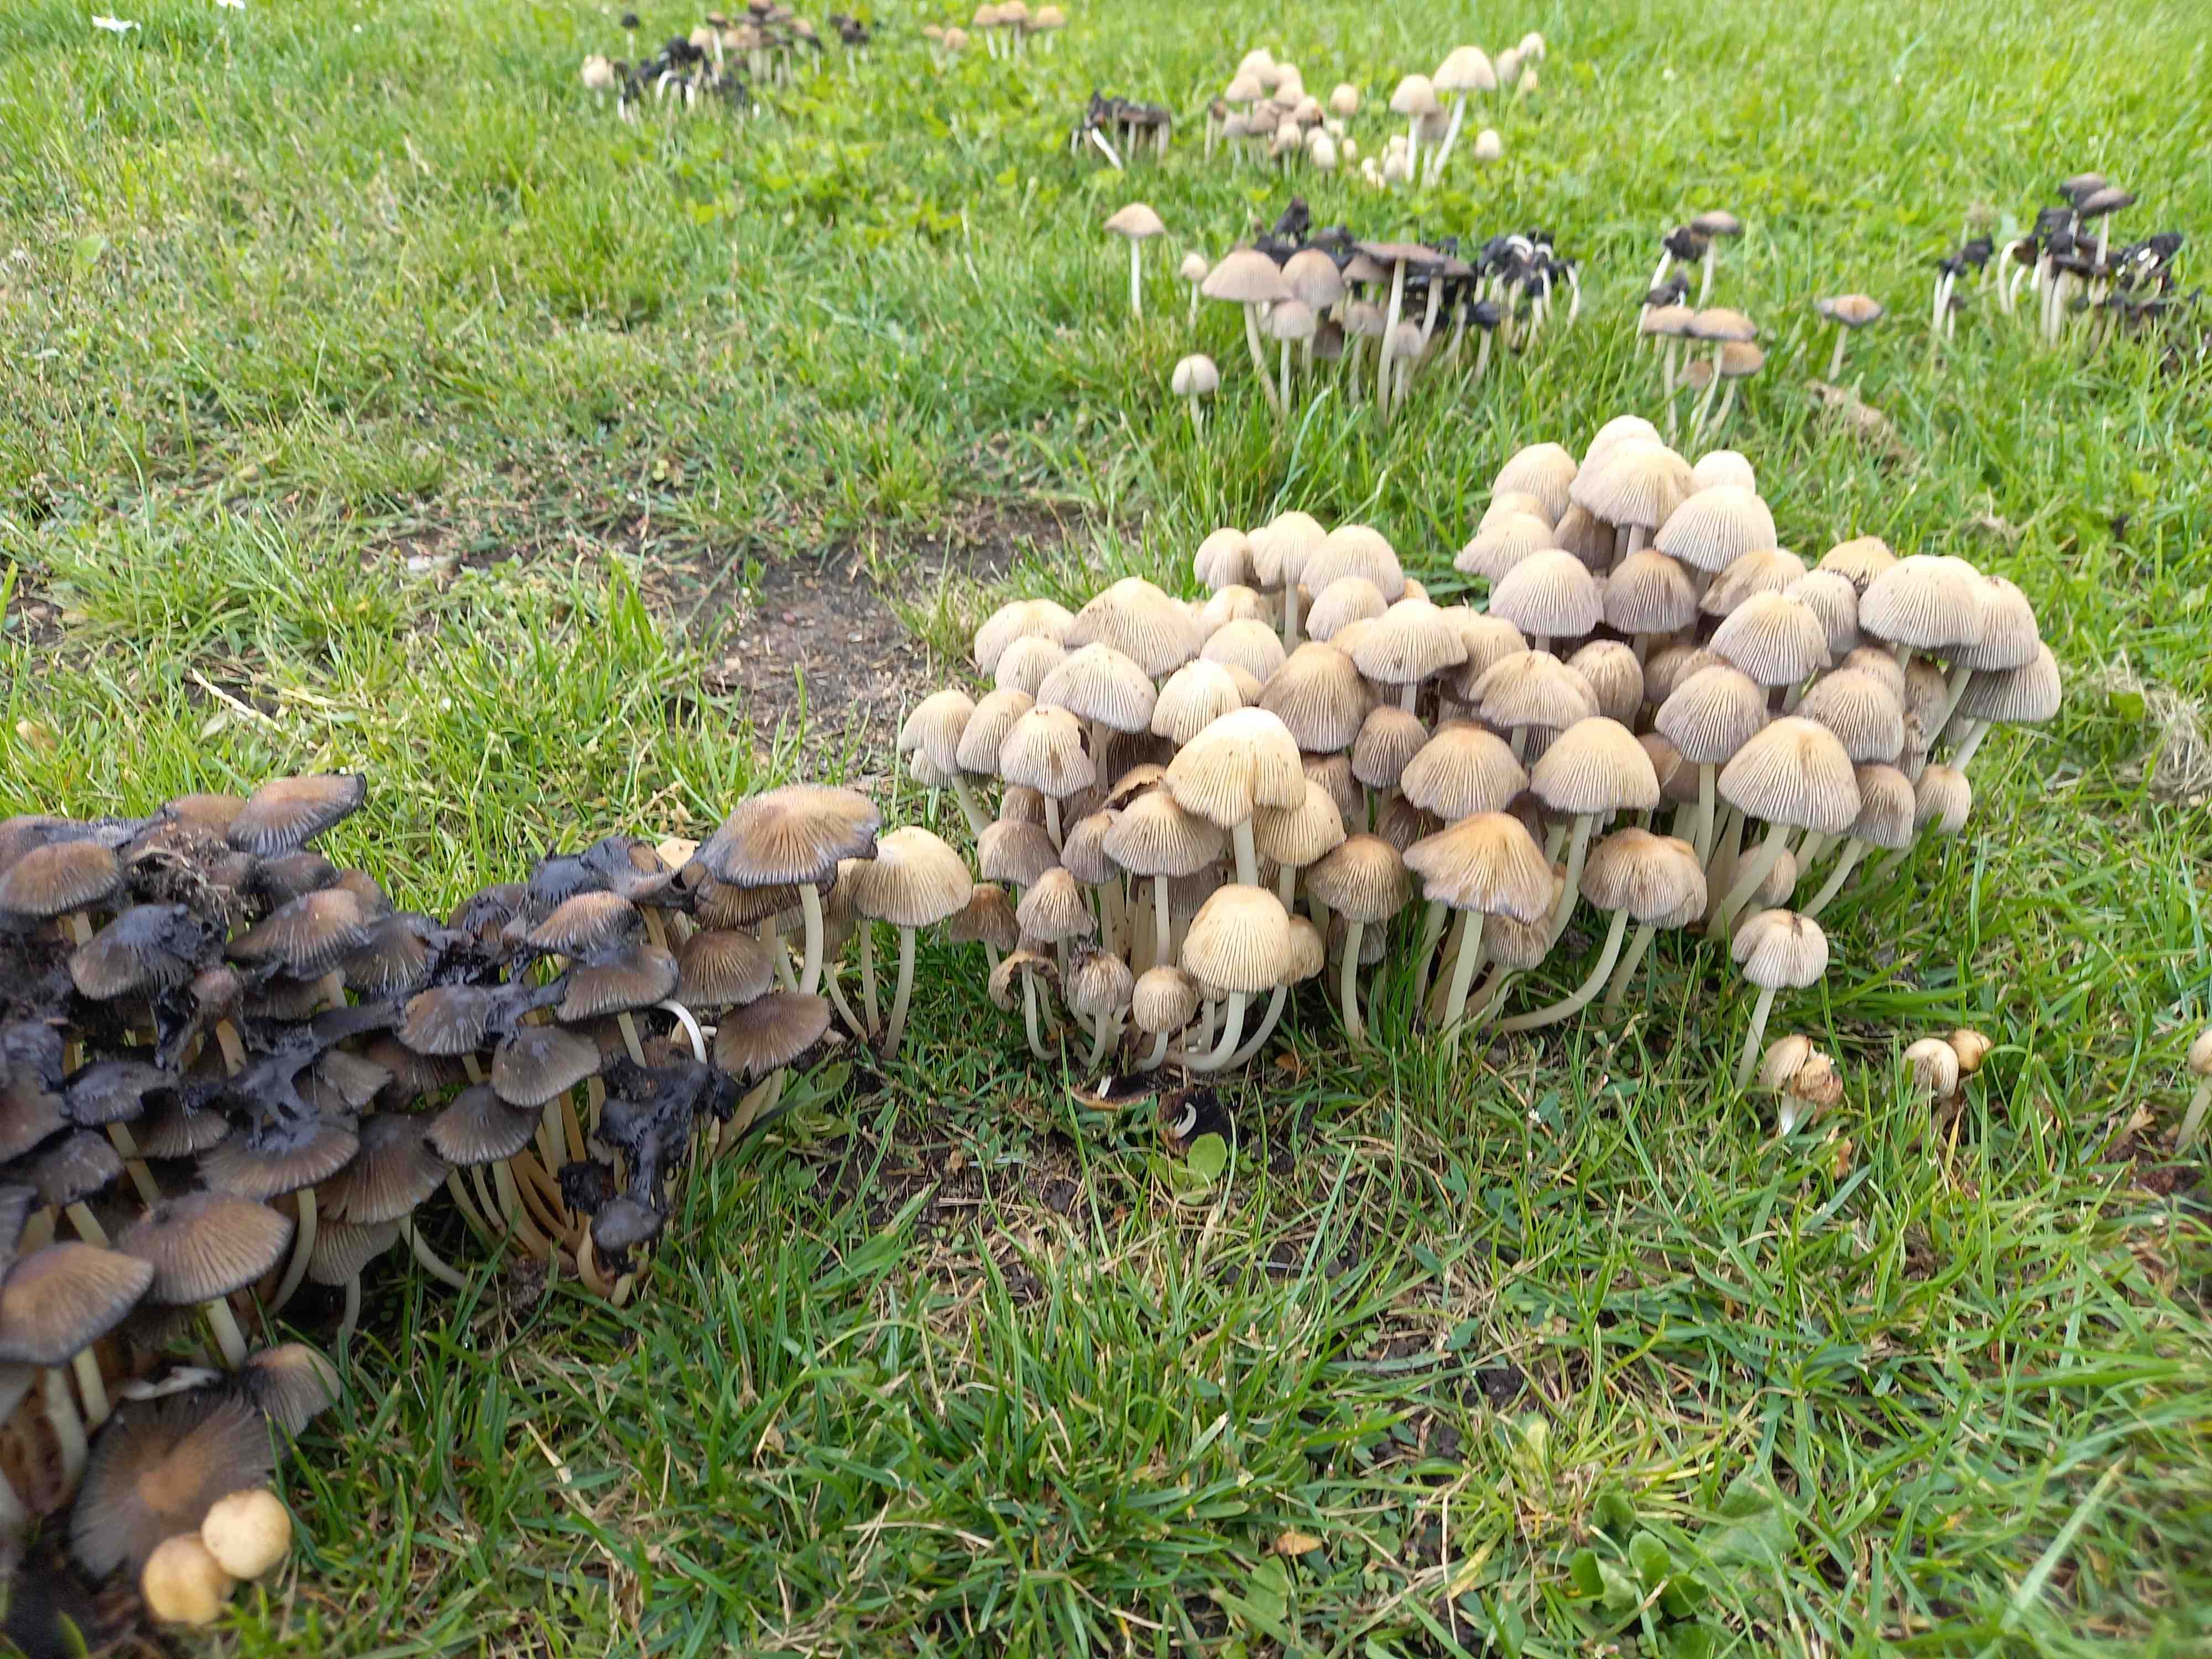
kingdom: Fungi
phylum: Basidiomycota
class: Agaricomycetes
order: Agaricales
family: Psathyrellaceae
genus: Coprinellus
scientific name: Coprinellus micaceus
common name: glimmer-blækhat
